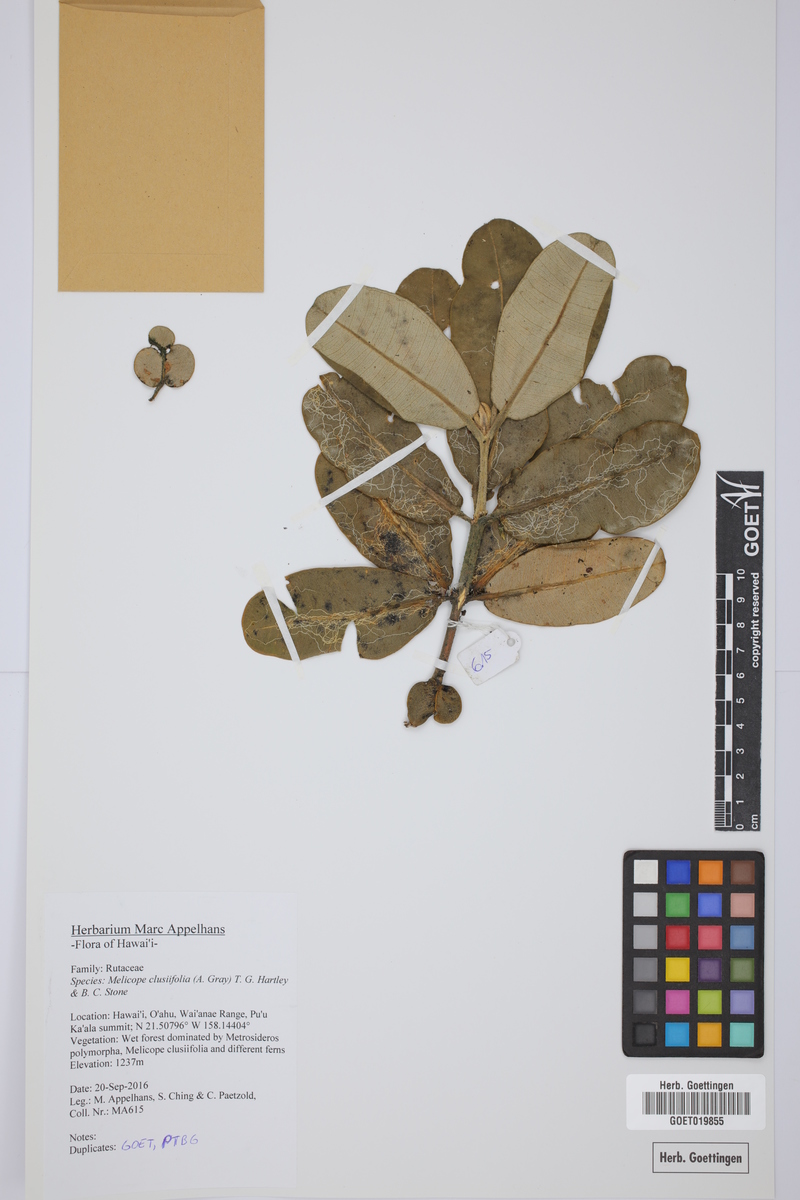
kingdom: Plantae
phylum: Tracheophyta
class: Magnoliopsida
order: Sapindales
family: Rutaceae
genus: Melicope
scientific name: Melicope clusiifolia
